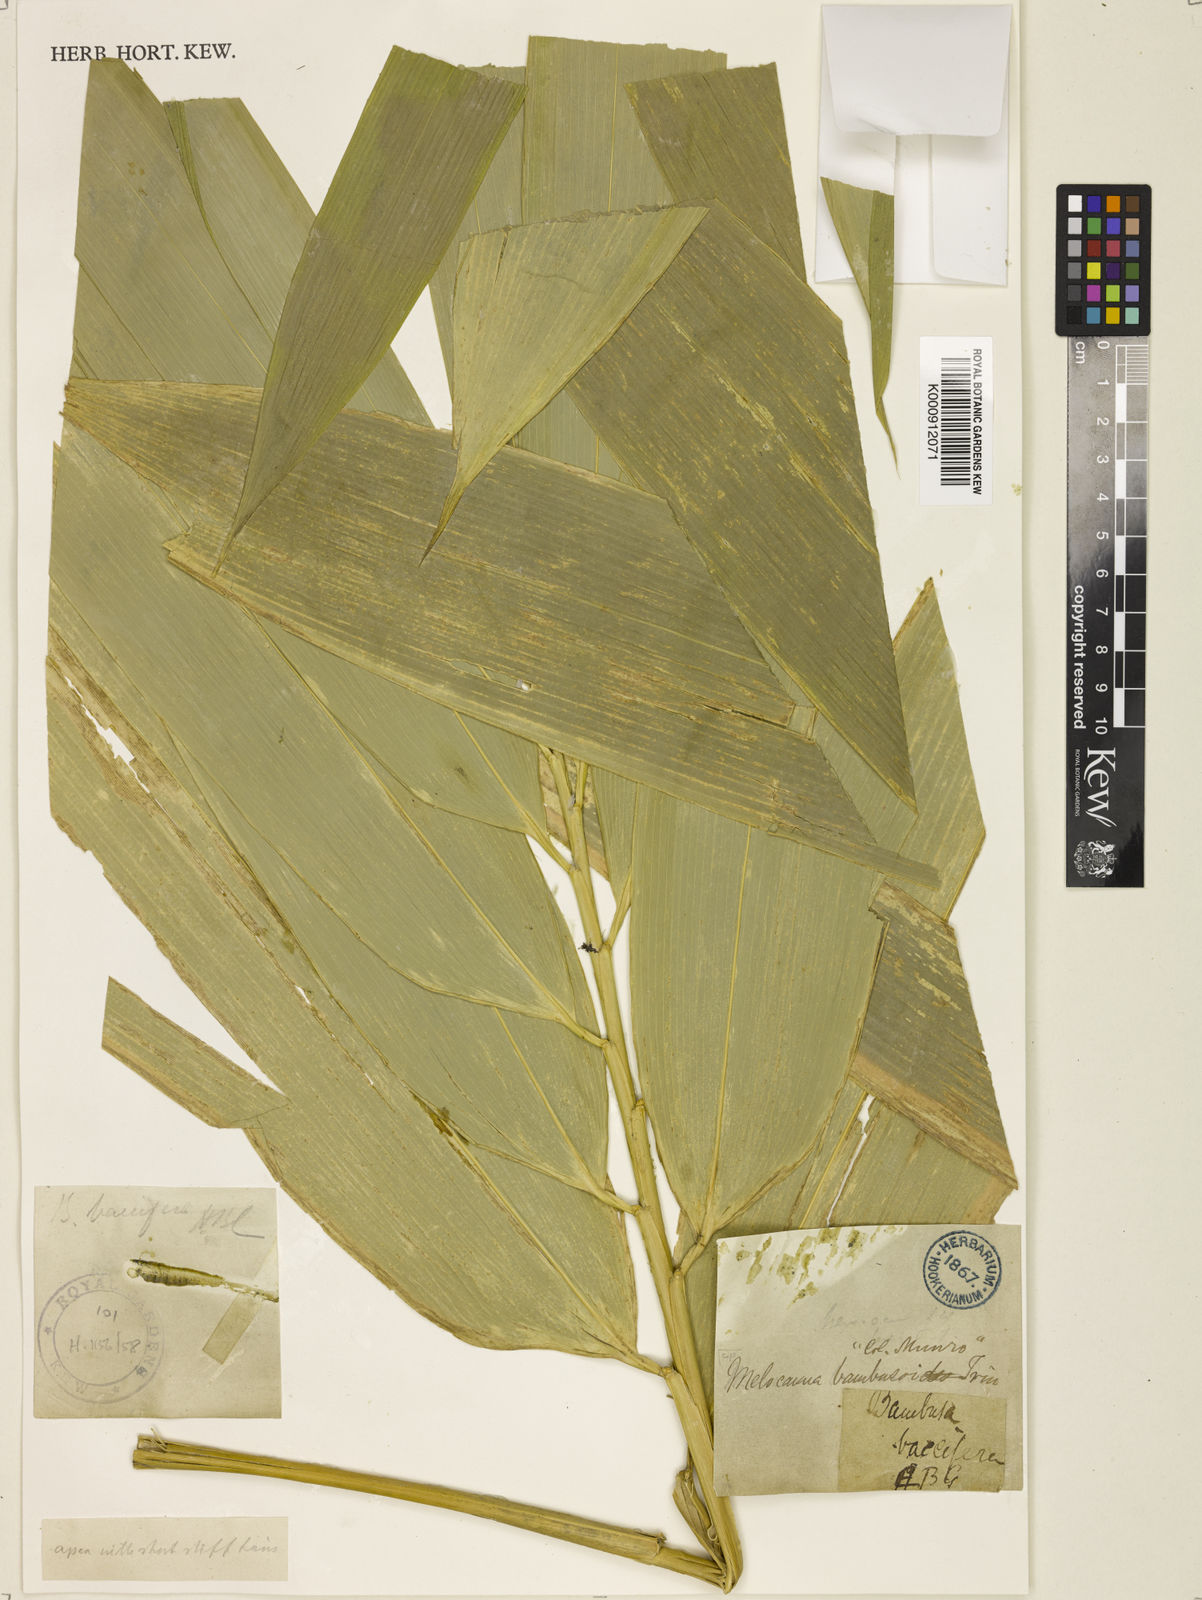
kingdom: Plantae
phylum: Tracheophyta
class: Liliopsida
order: Poales
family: Poaceae
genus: Melocanna
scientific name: Melocanna baccifera
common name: Berry bamboo
